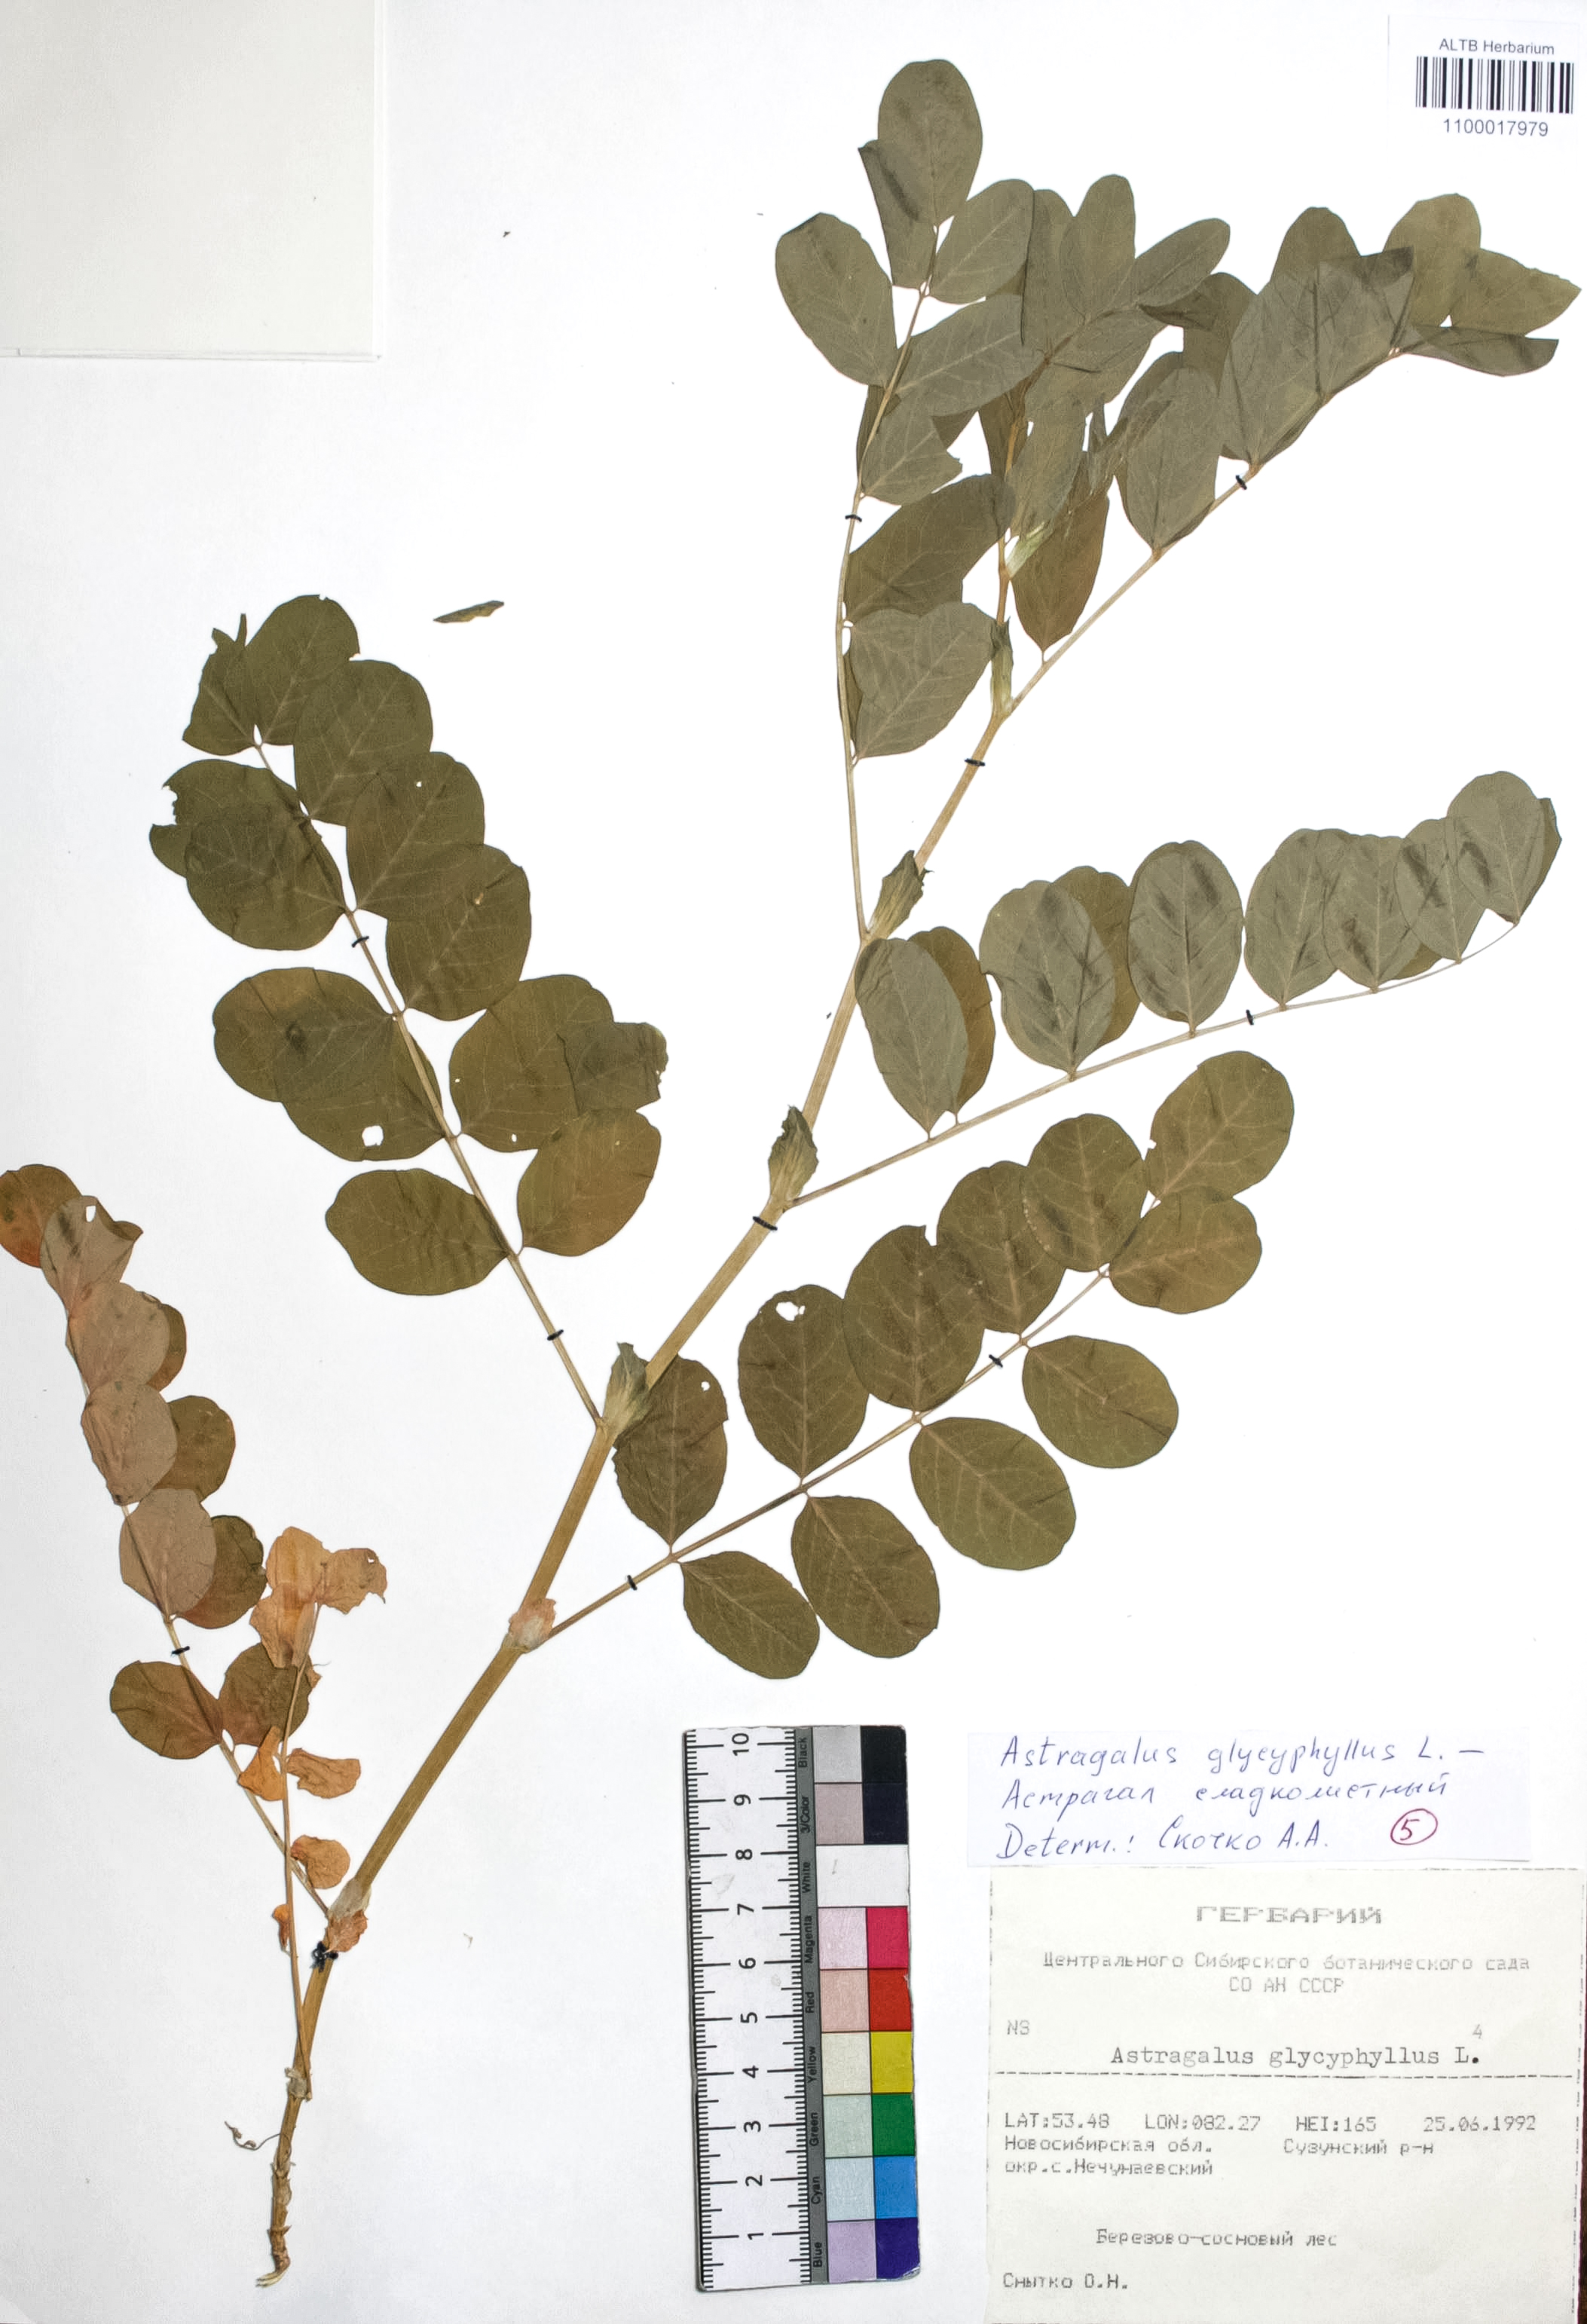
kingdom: Plantae
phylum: Tracheophyta
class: Magnoliopsida
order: Fabales
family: Fabaceae
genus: Astragalus
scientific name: Astragalus glycyphyllos
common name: Wild liquorice
